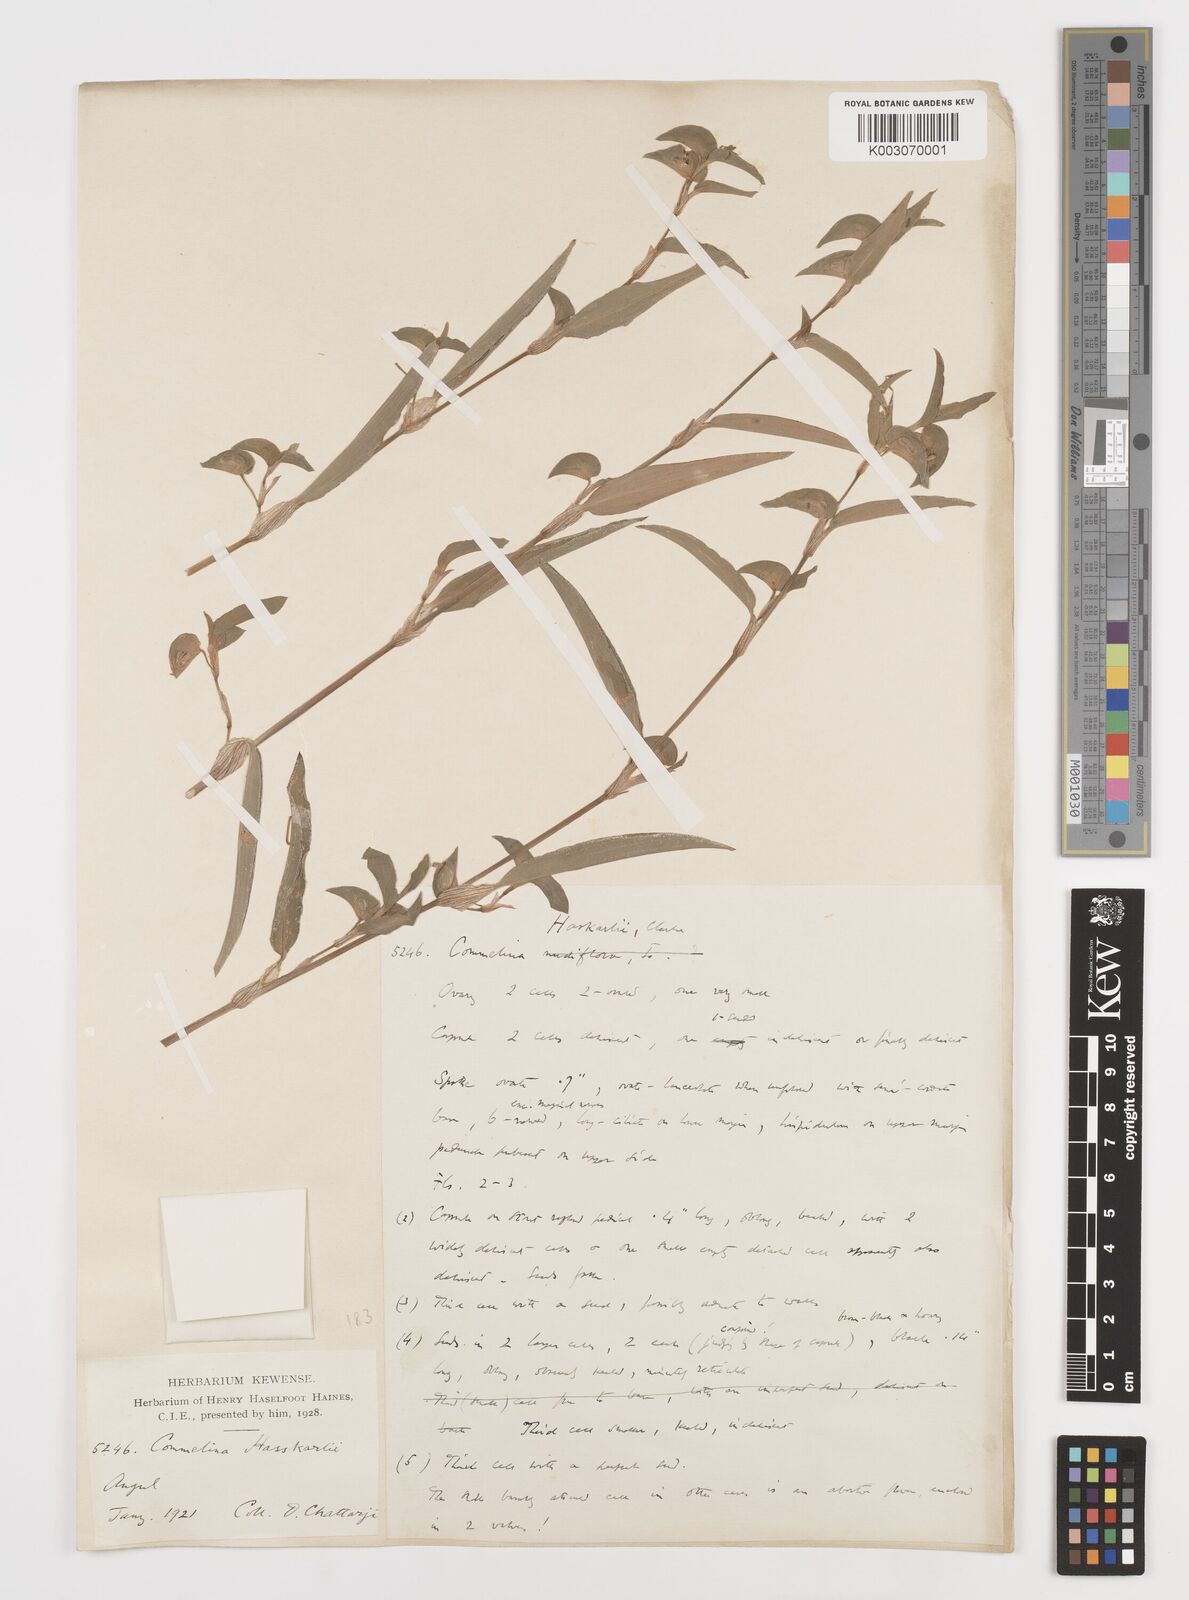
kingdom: Plantae
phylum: Tracheophyta
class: Liliopsida
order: Commelinales
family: Commelinaceae
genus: Commelina
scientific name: Commelina
